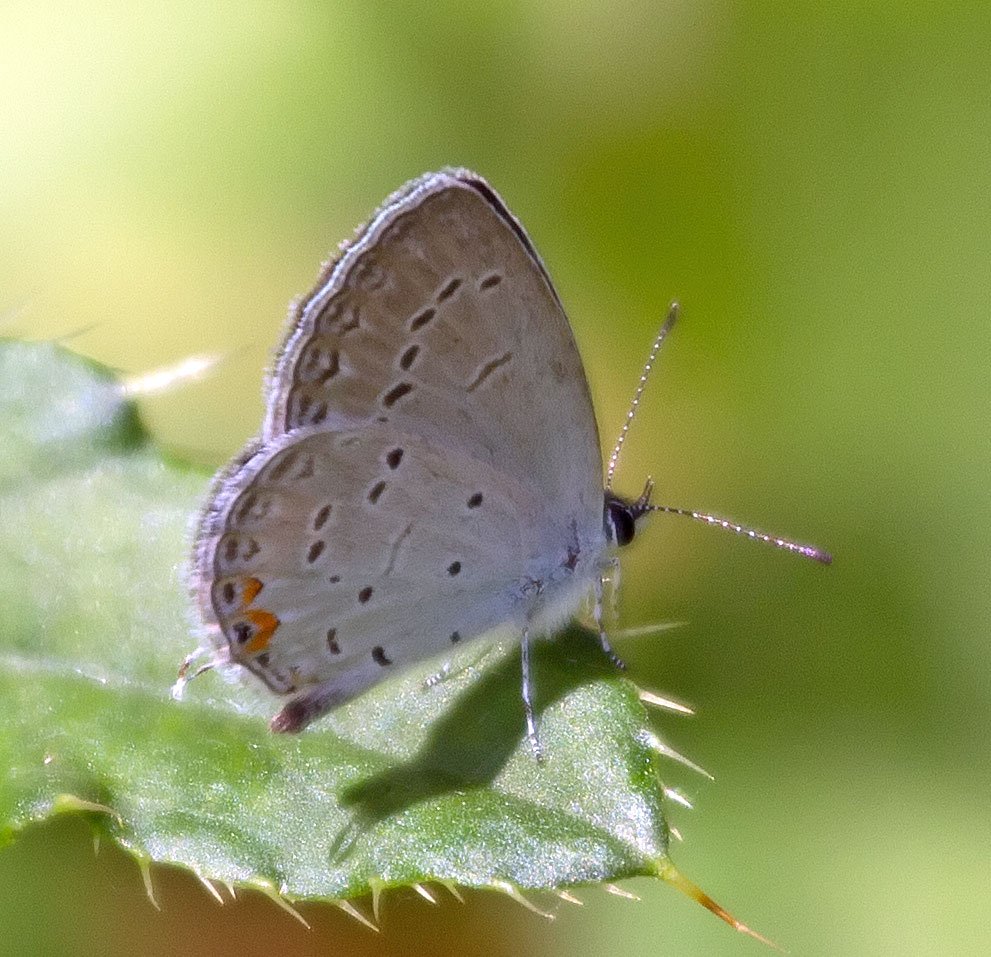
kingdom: Animalia
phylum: Arthropoda
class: Insecta
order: Lepidoptera
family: Lycaenidae
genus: Elkalyce
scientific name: Elkalyce comyntas
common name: Eastern Tailed-Blue
